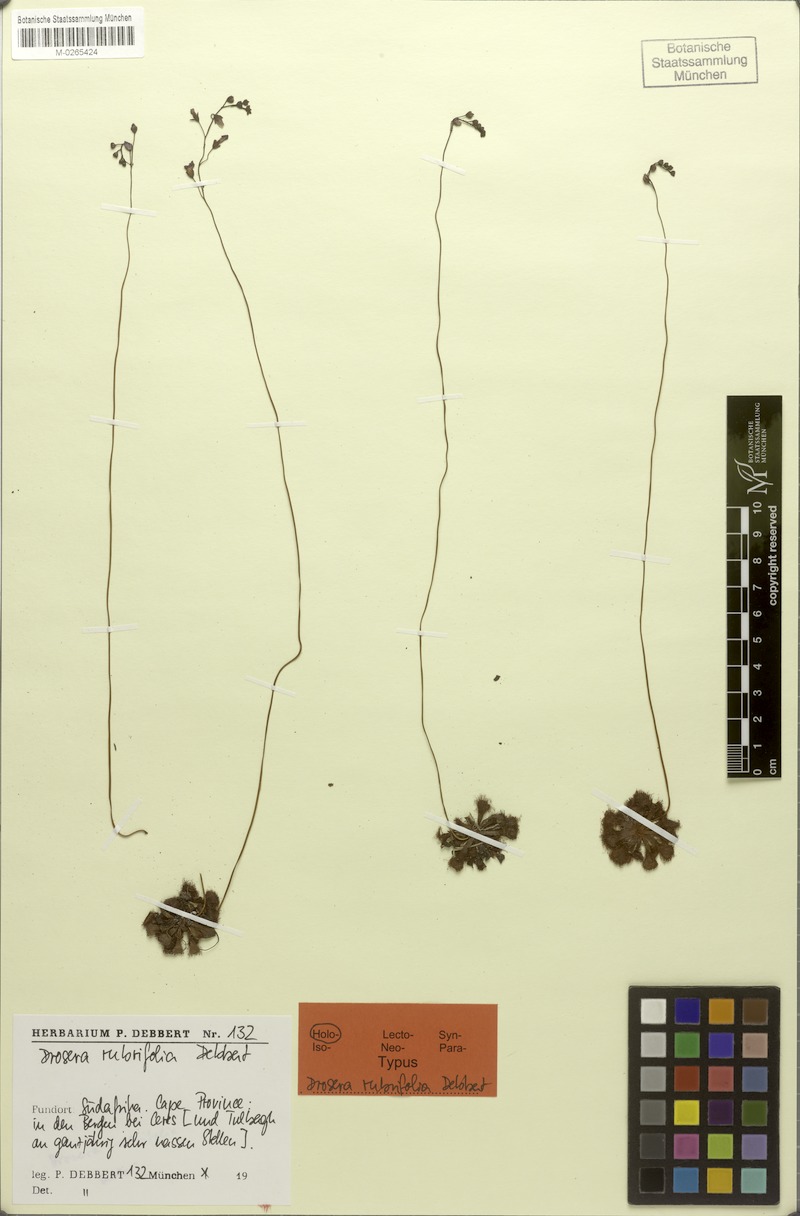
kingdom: Plantae
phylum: Tracheophyta
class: Magnoliopsida
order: Caryophyllales
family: Droseraceae
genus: Drosera
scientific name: Drosera rubrifolia
